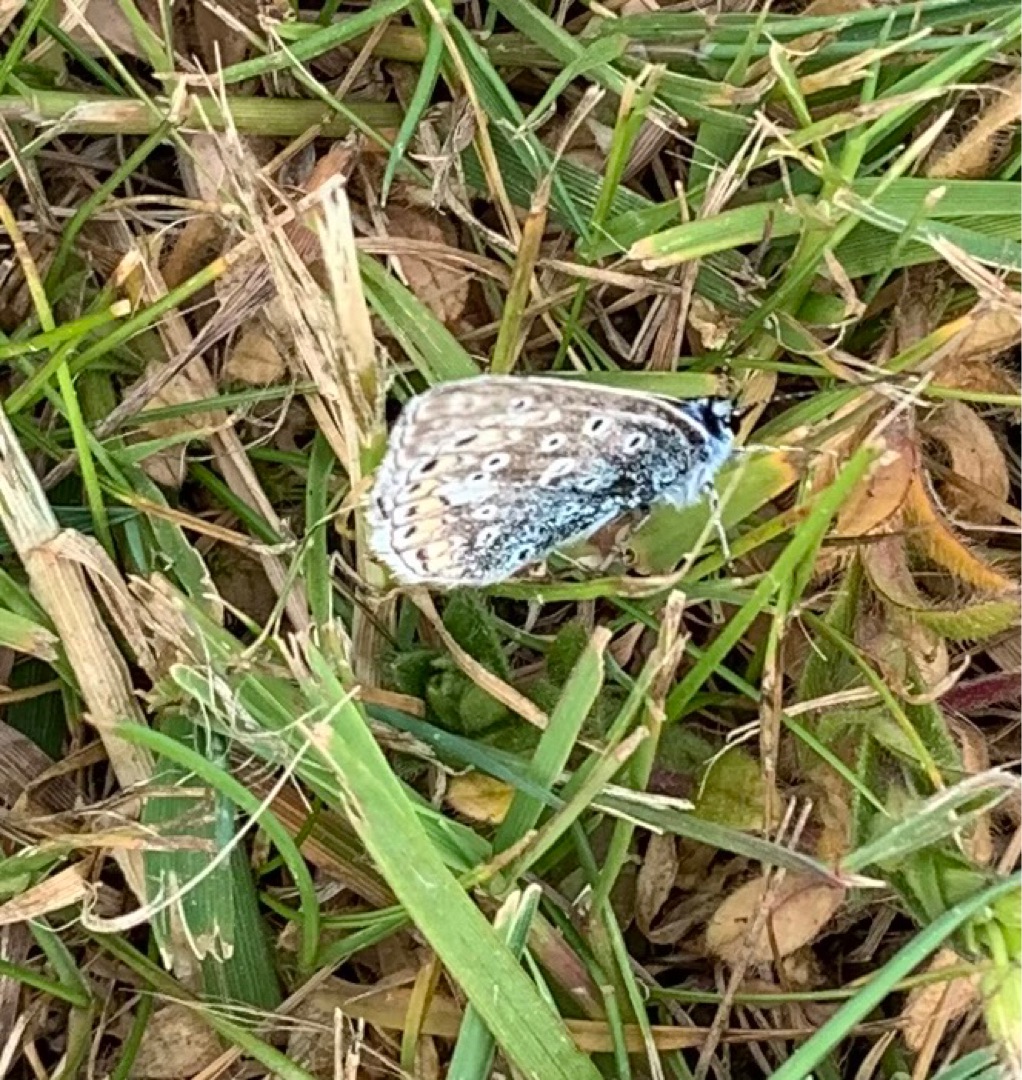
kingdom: Animalia
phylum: Arthropoda
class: Insecta
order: Lepidoptera
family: Lycaenidae
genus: Polyommatus
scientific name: Polyommatus icarus
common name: Almindelig blåfugl
